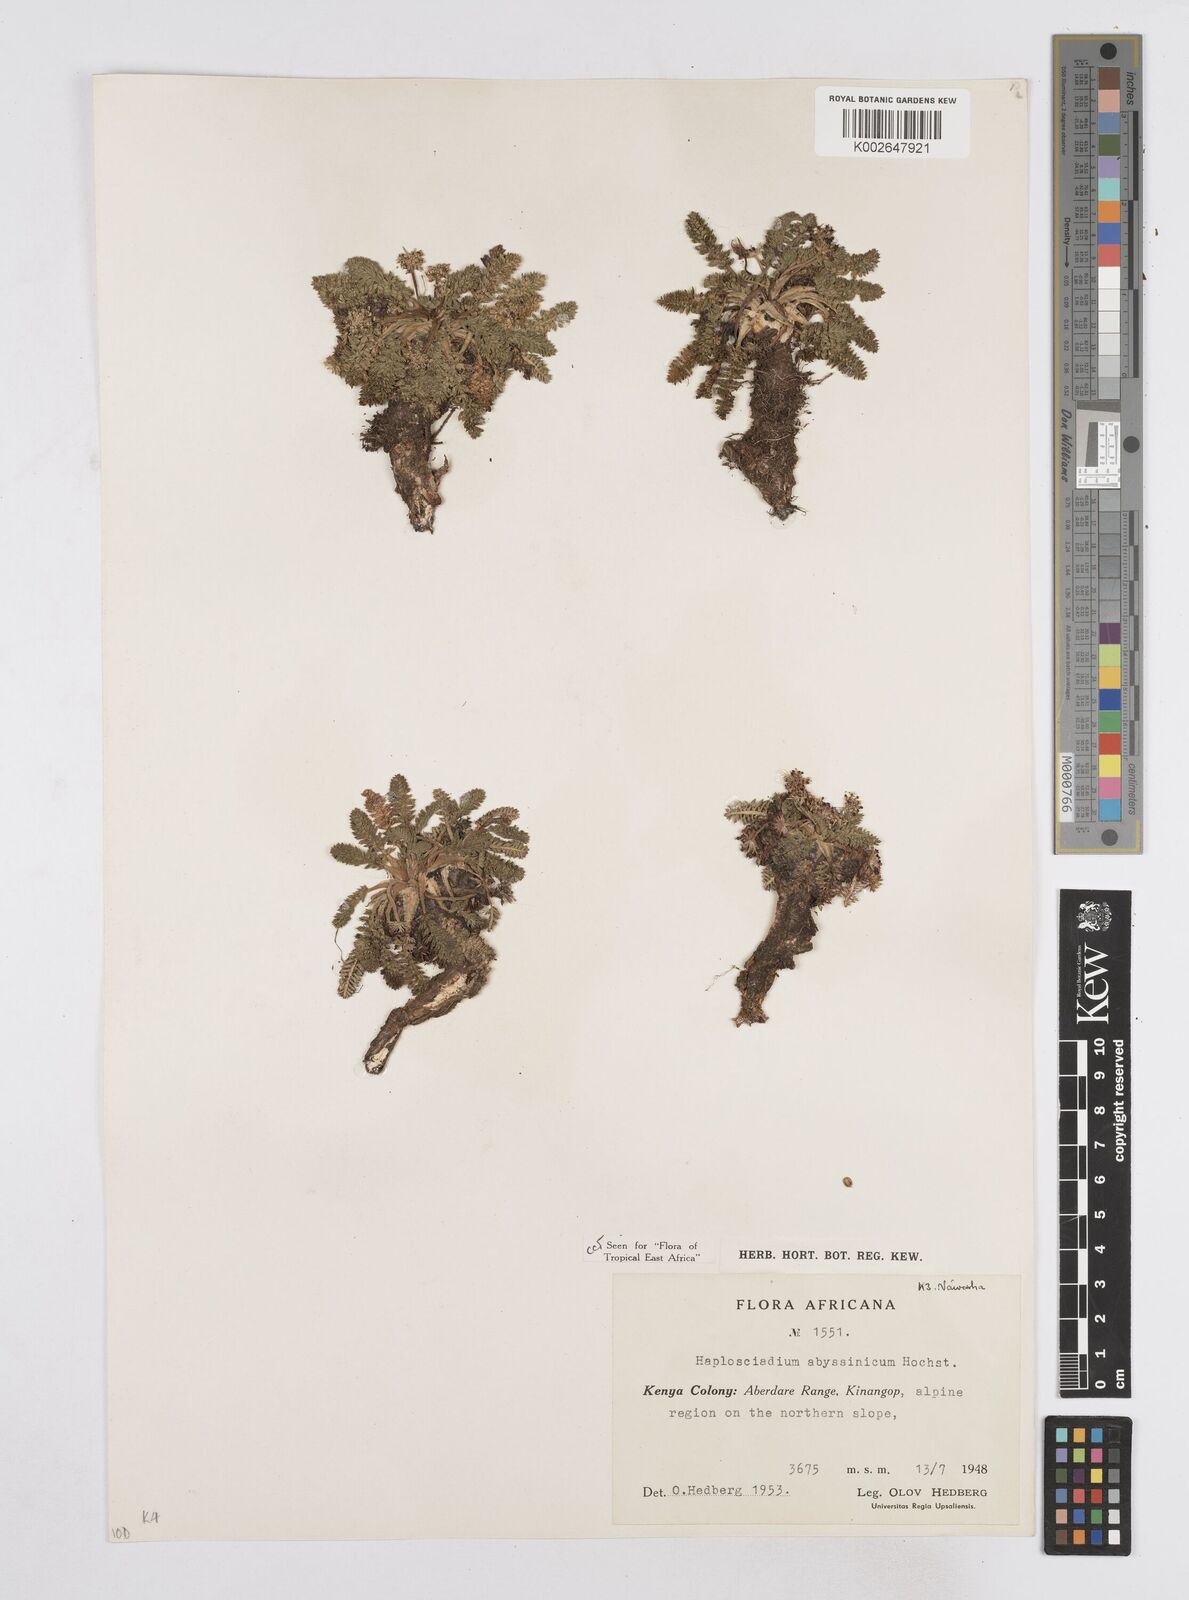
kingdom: Plantae
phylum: Tracheophyta
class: Magnoliopsida
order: Apiales
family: Apiaceae
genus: Haplosciadium
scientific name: Haplosciadium abyssinicum
